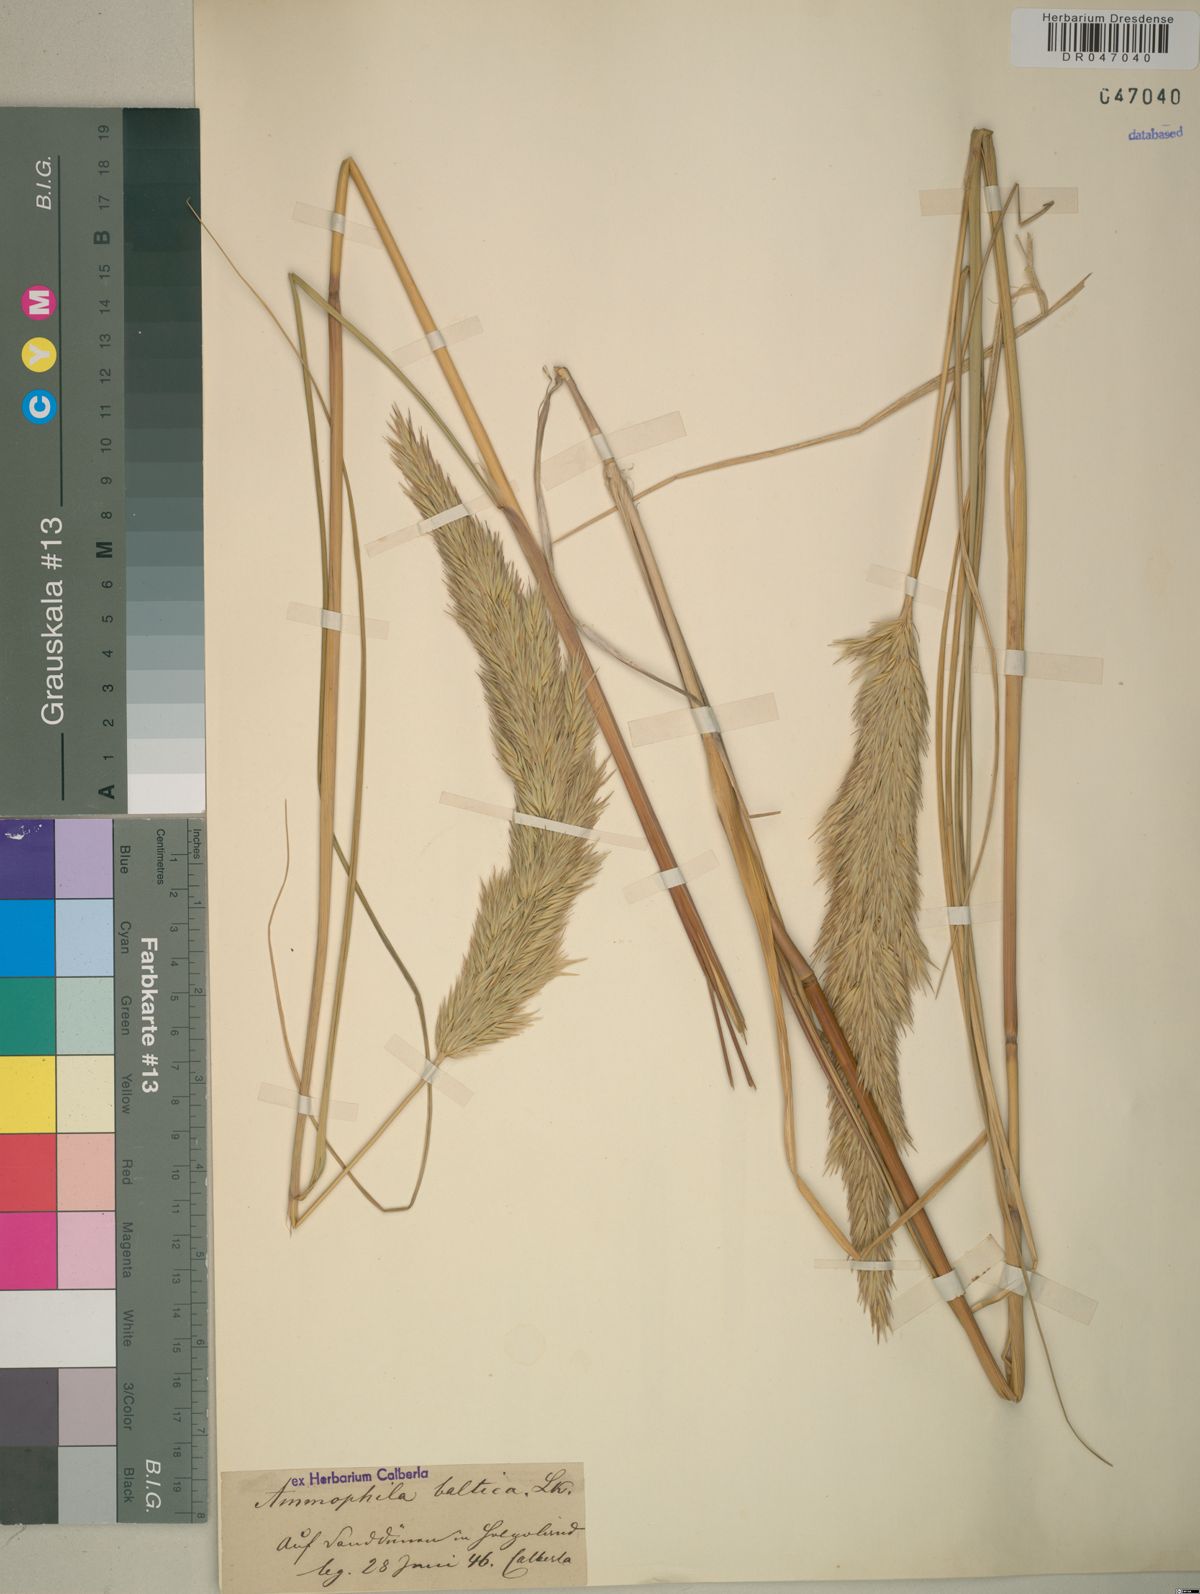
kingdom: Plantae
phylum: Tracheophyta
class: Liliopsida
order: Poales
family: Poaceae
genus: Calamagrostis
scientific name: Calamagrostis baltica
